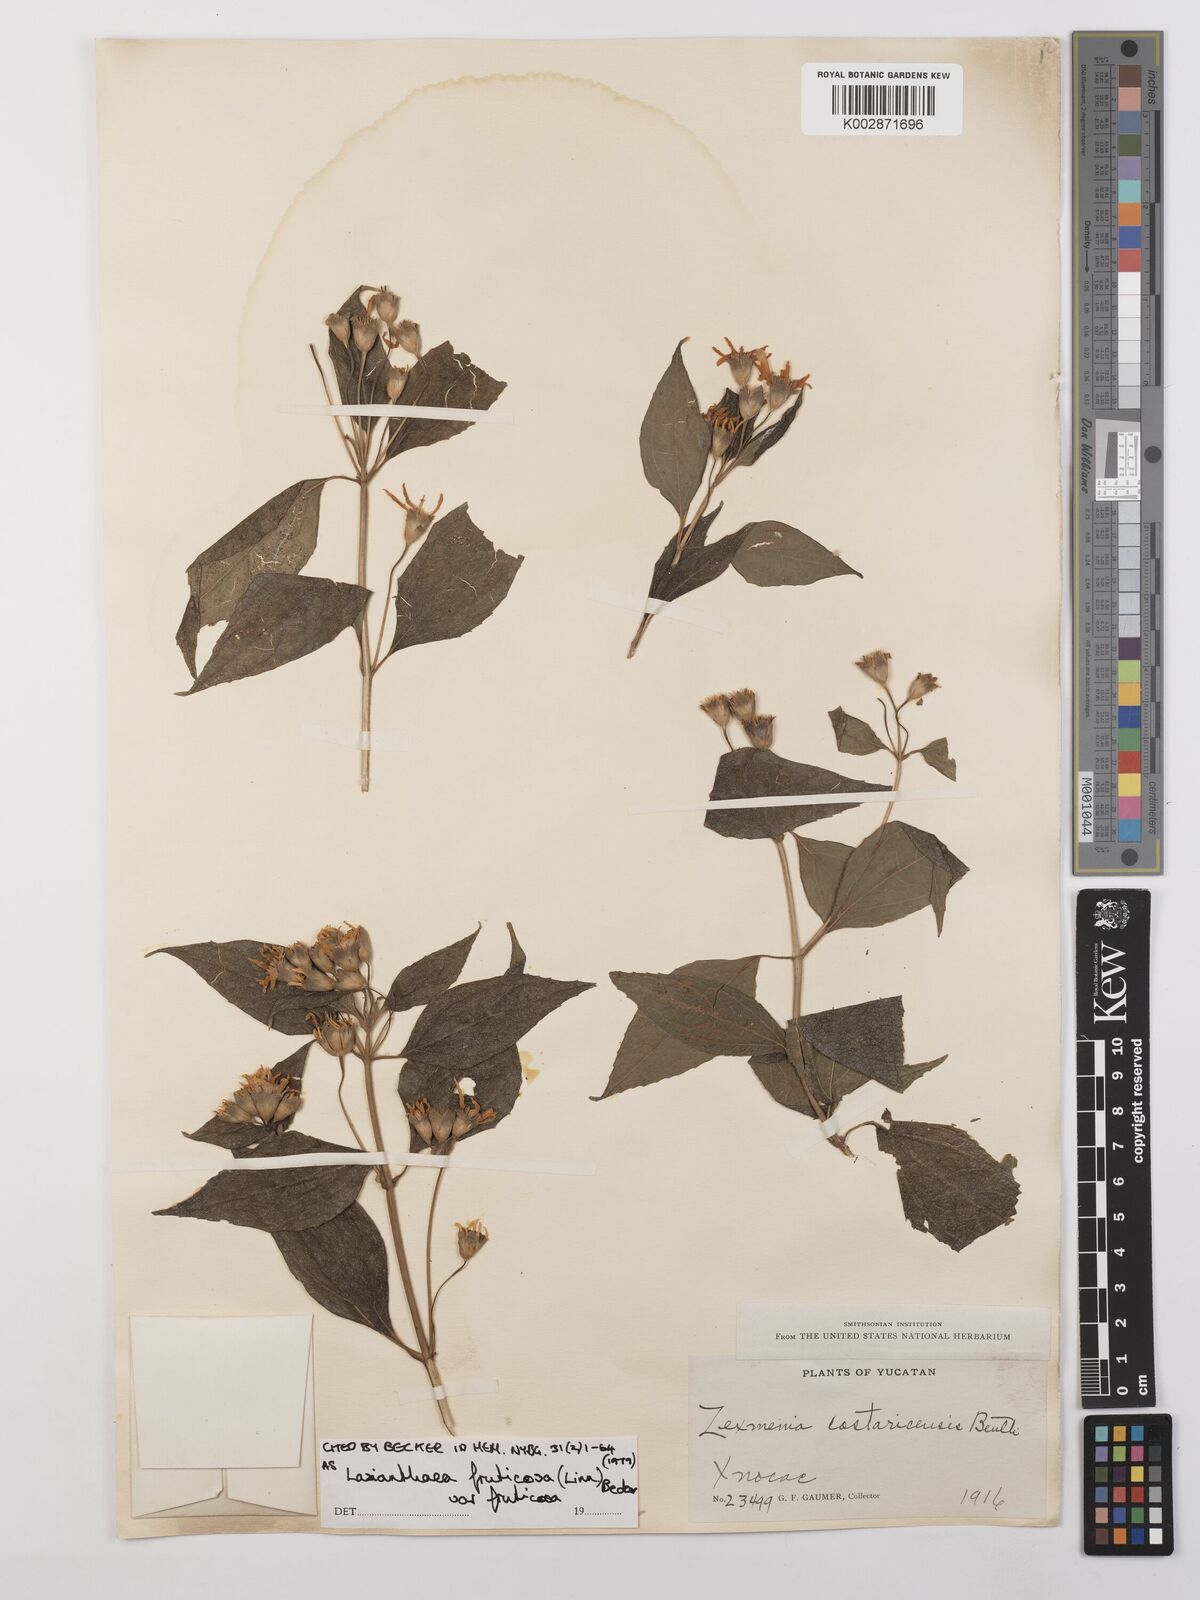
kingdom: Plantae
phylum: Tracheophyta
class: Magnoliopsida
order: Asterales
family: Asteraceae
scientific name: Asteraceae
